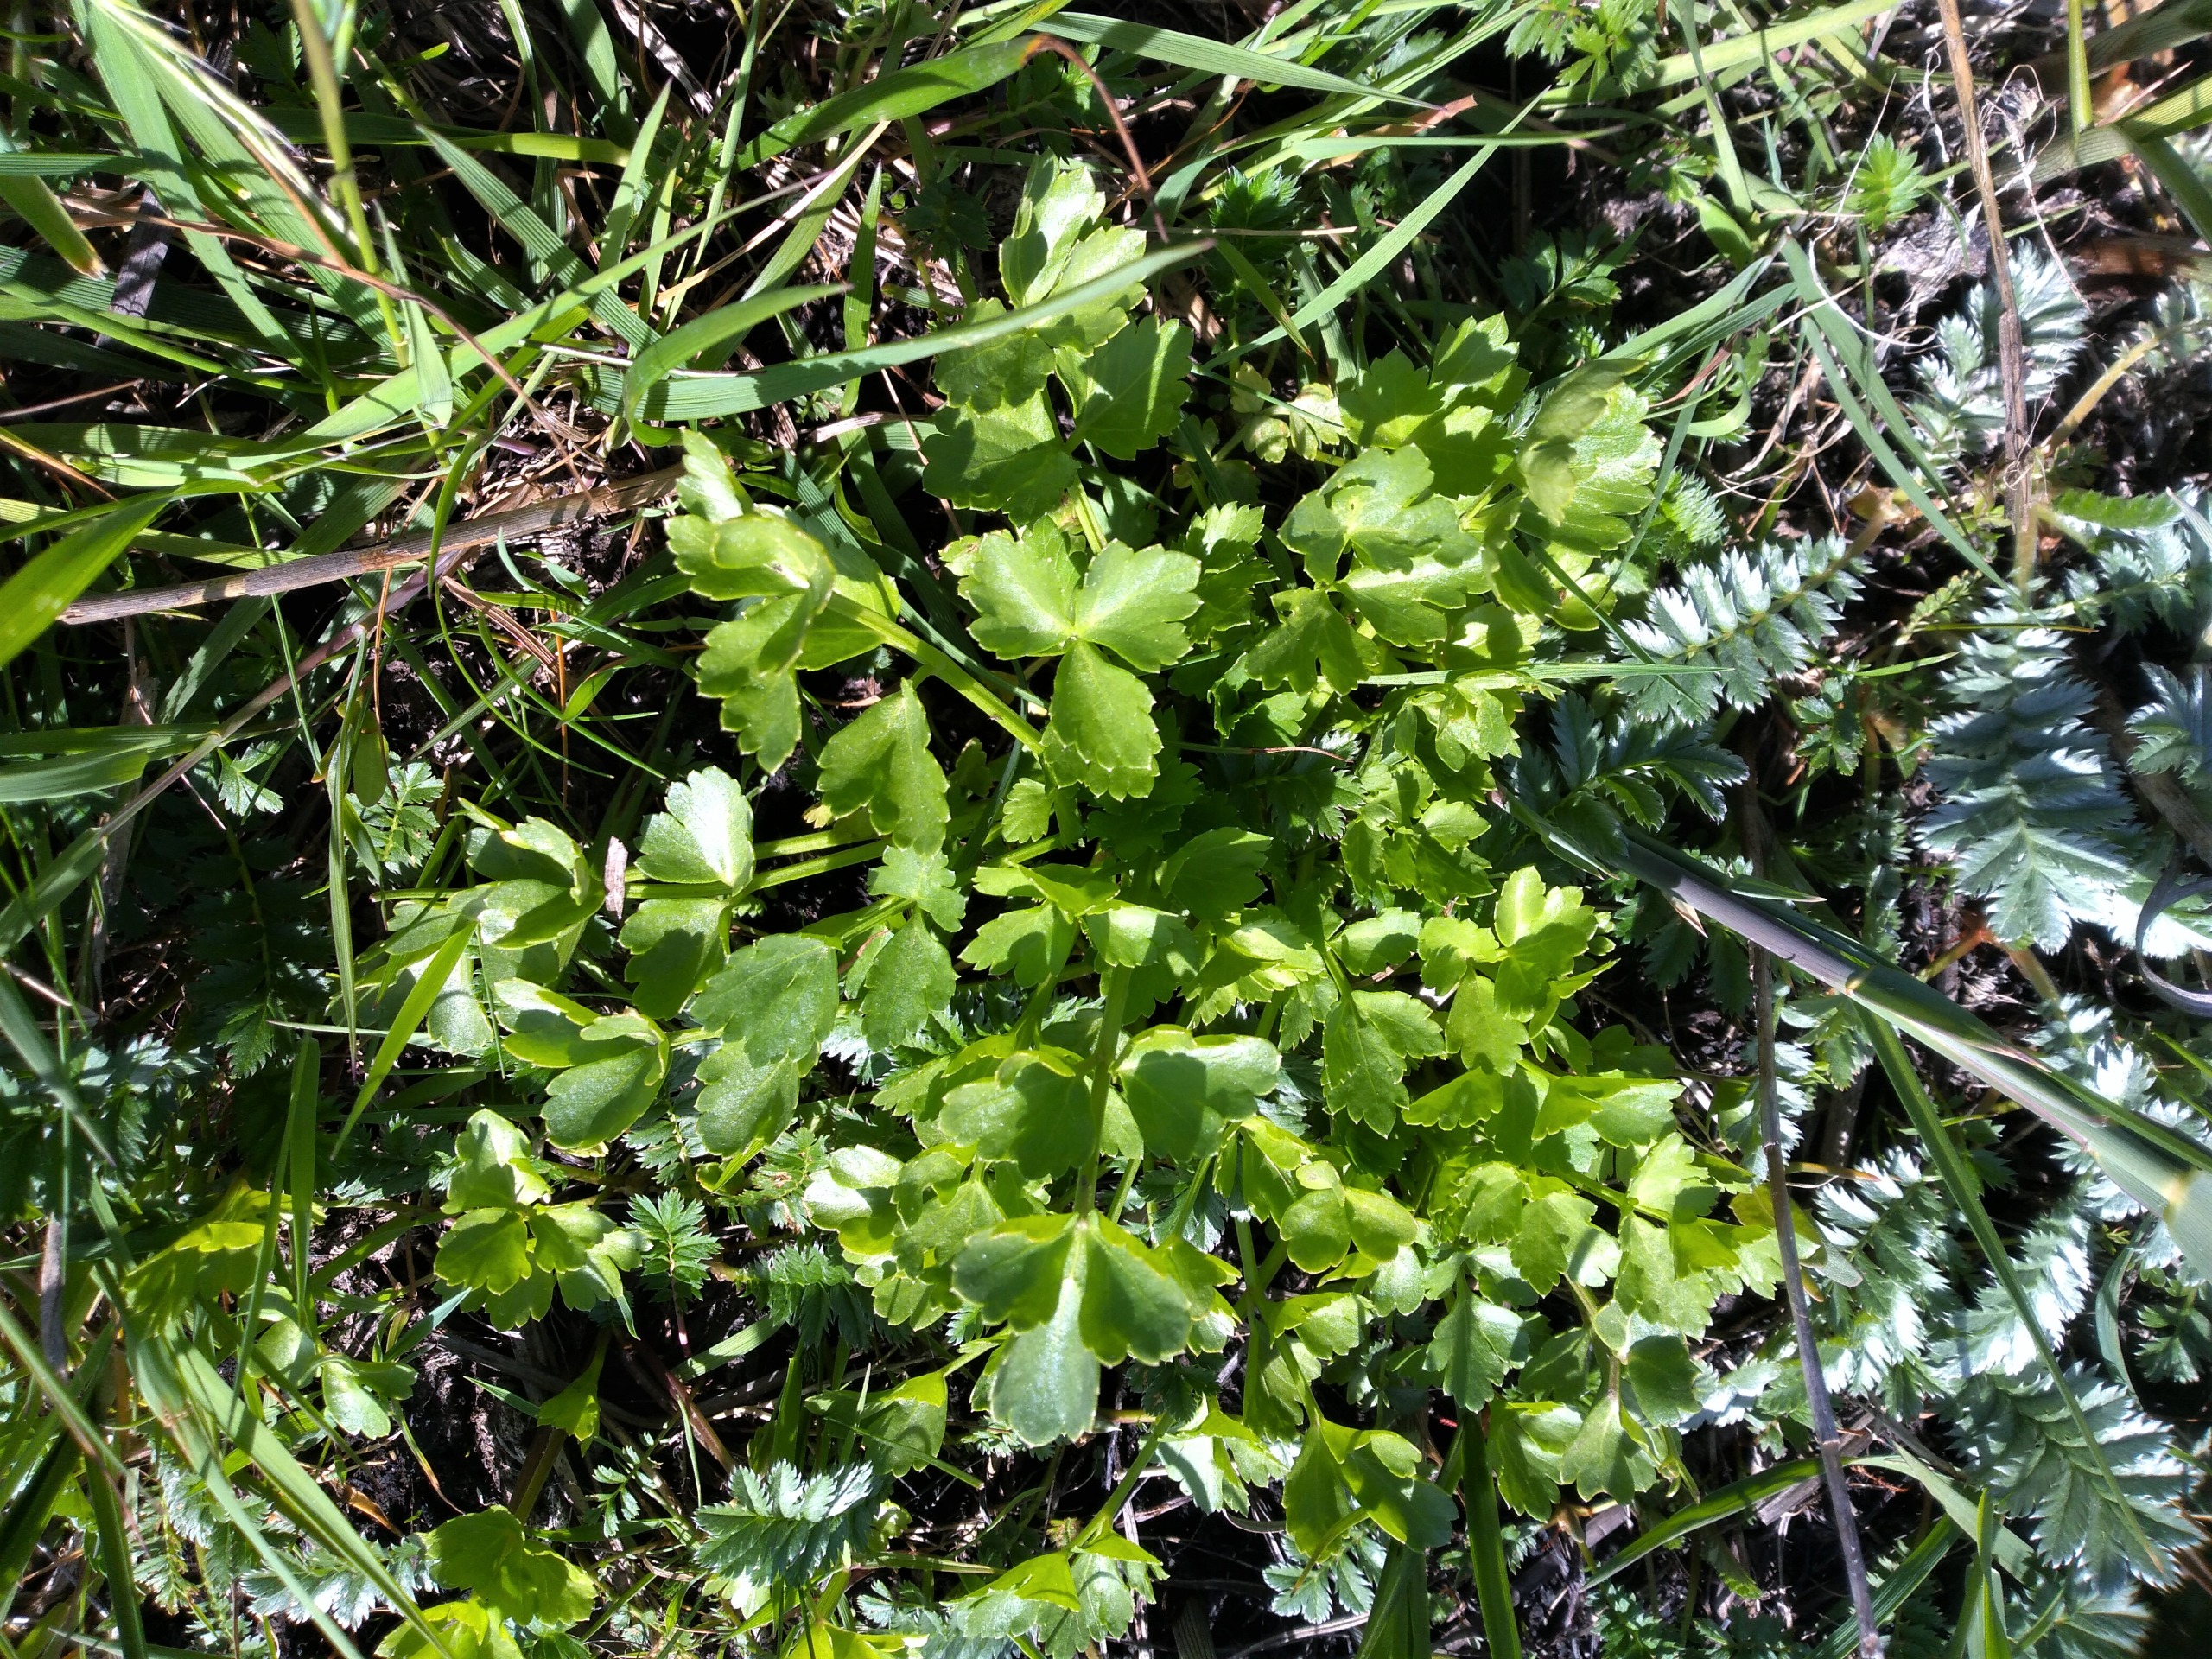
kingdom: Plantae
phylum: Tracheophyta
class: Magnoliopsida
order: Apiales
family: Apiaceae
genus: Apium
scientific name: Apium graveolens
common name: Vild selleri
